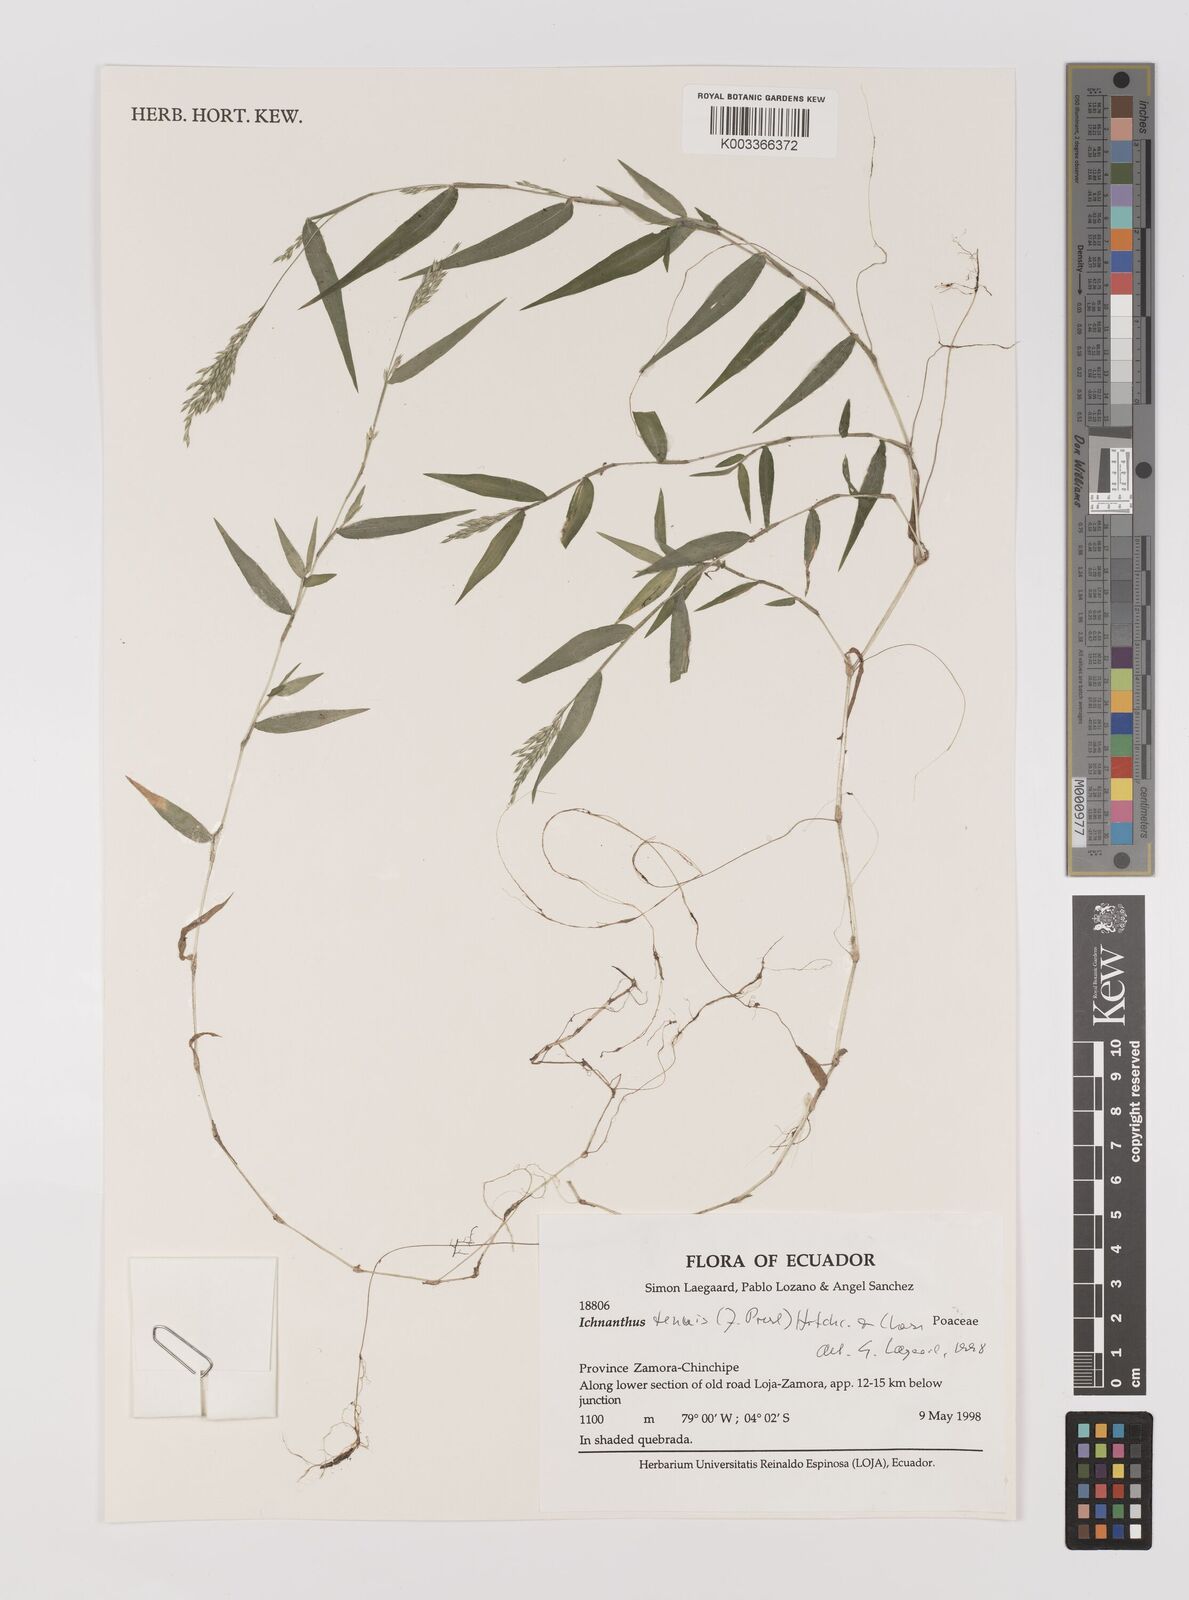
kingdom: Plantae
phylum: Tracheophyta
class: Liliopsida
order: Poales
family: Poaceae
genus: Ichnanthus
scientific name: Ichnanthus tenuis
